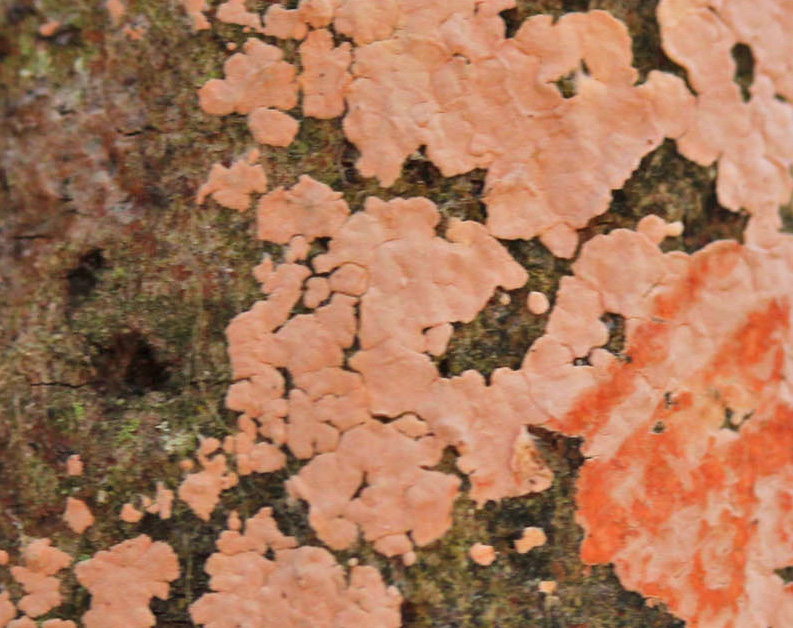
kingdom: Fungi
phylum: Basidiomycota
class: Agaricomycetes
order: Russulales
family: Peniophoraceae
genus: Peniophora
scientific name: Peniophora polygonia
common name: polygon-voksskind
